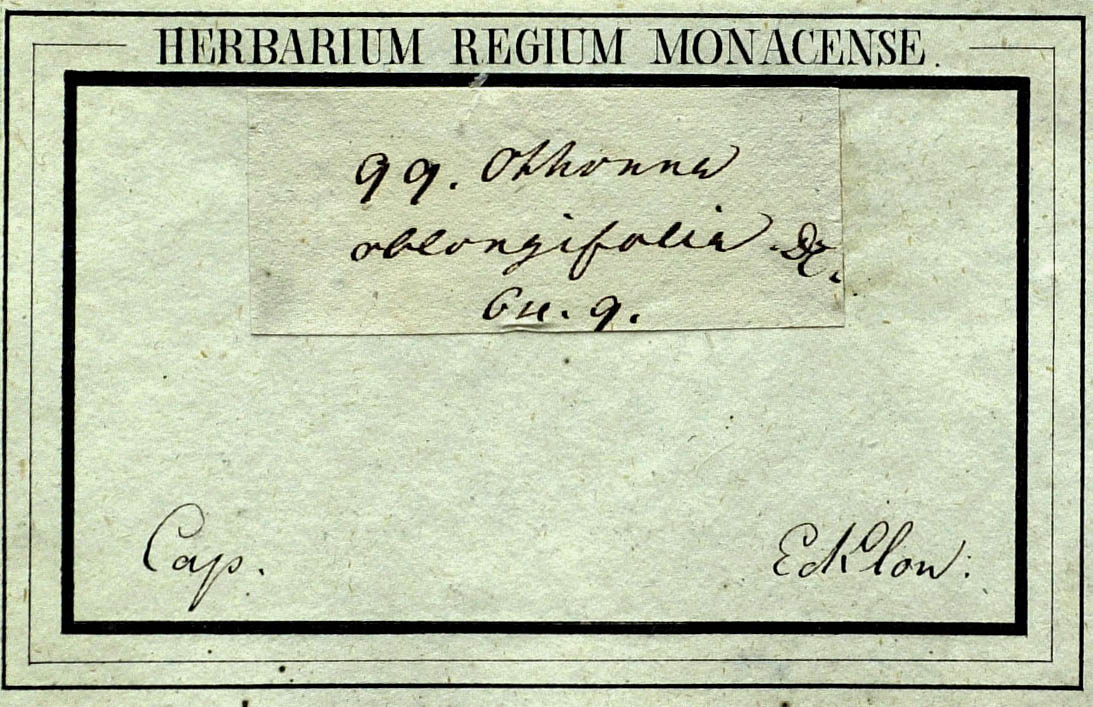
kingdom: Plantae
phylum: Tracheophyta
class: Magnoliopsida
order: Asterales
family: Asteraceae
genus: Othonna
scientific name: Othonna bulbosa
